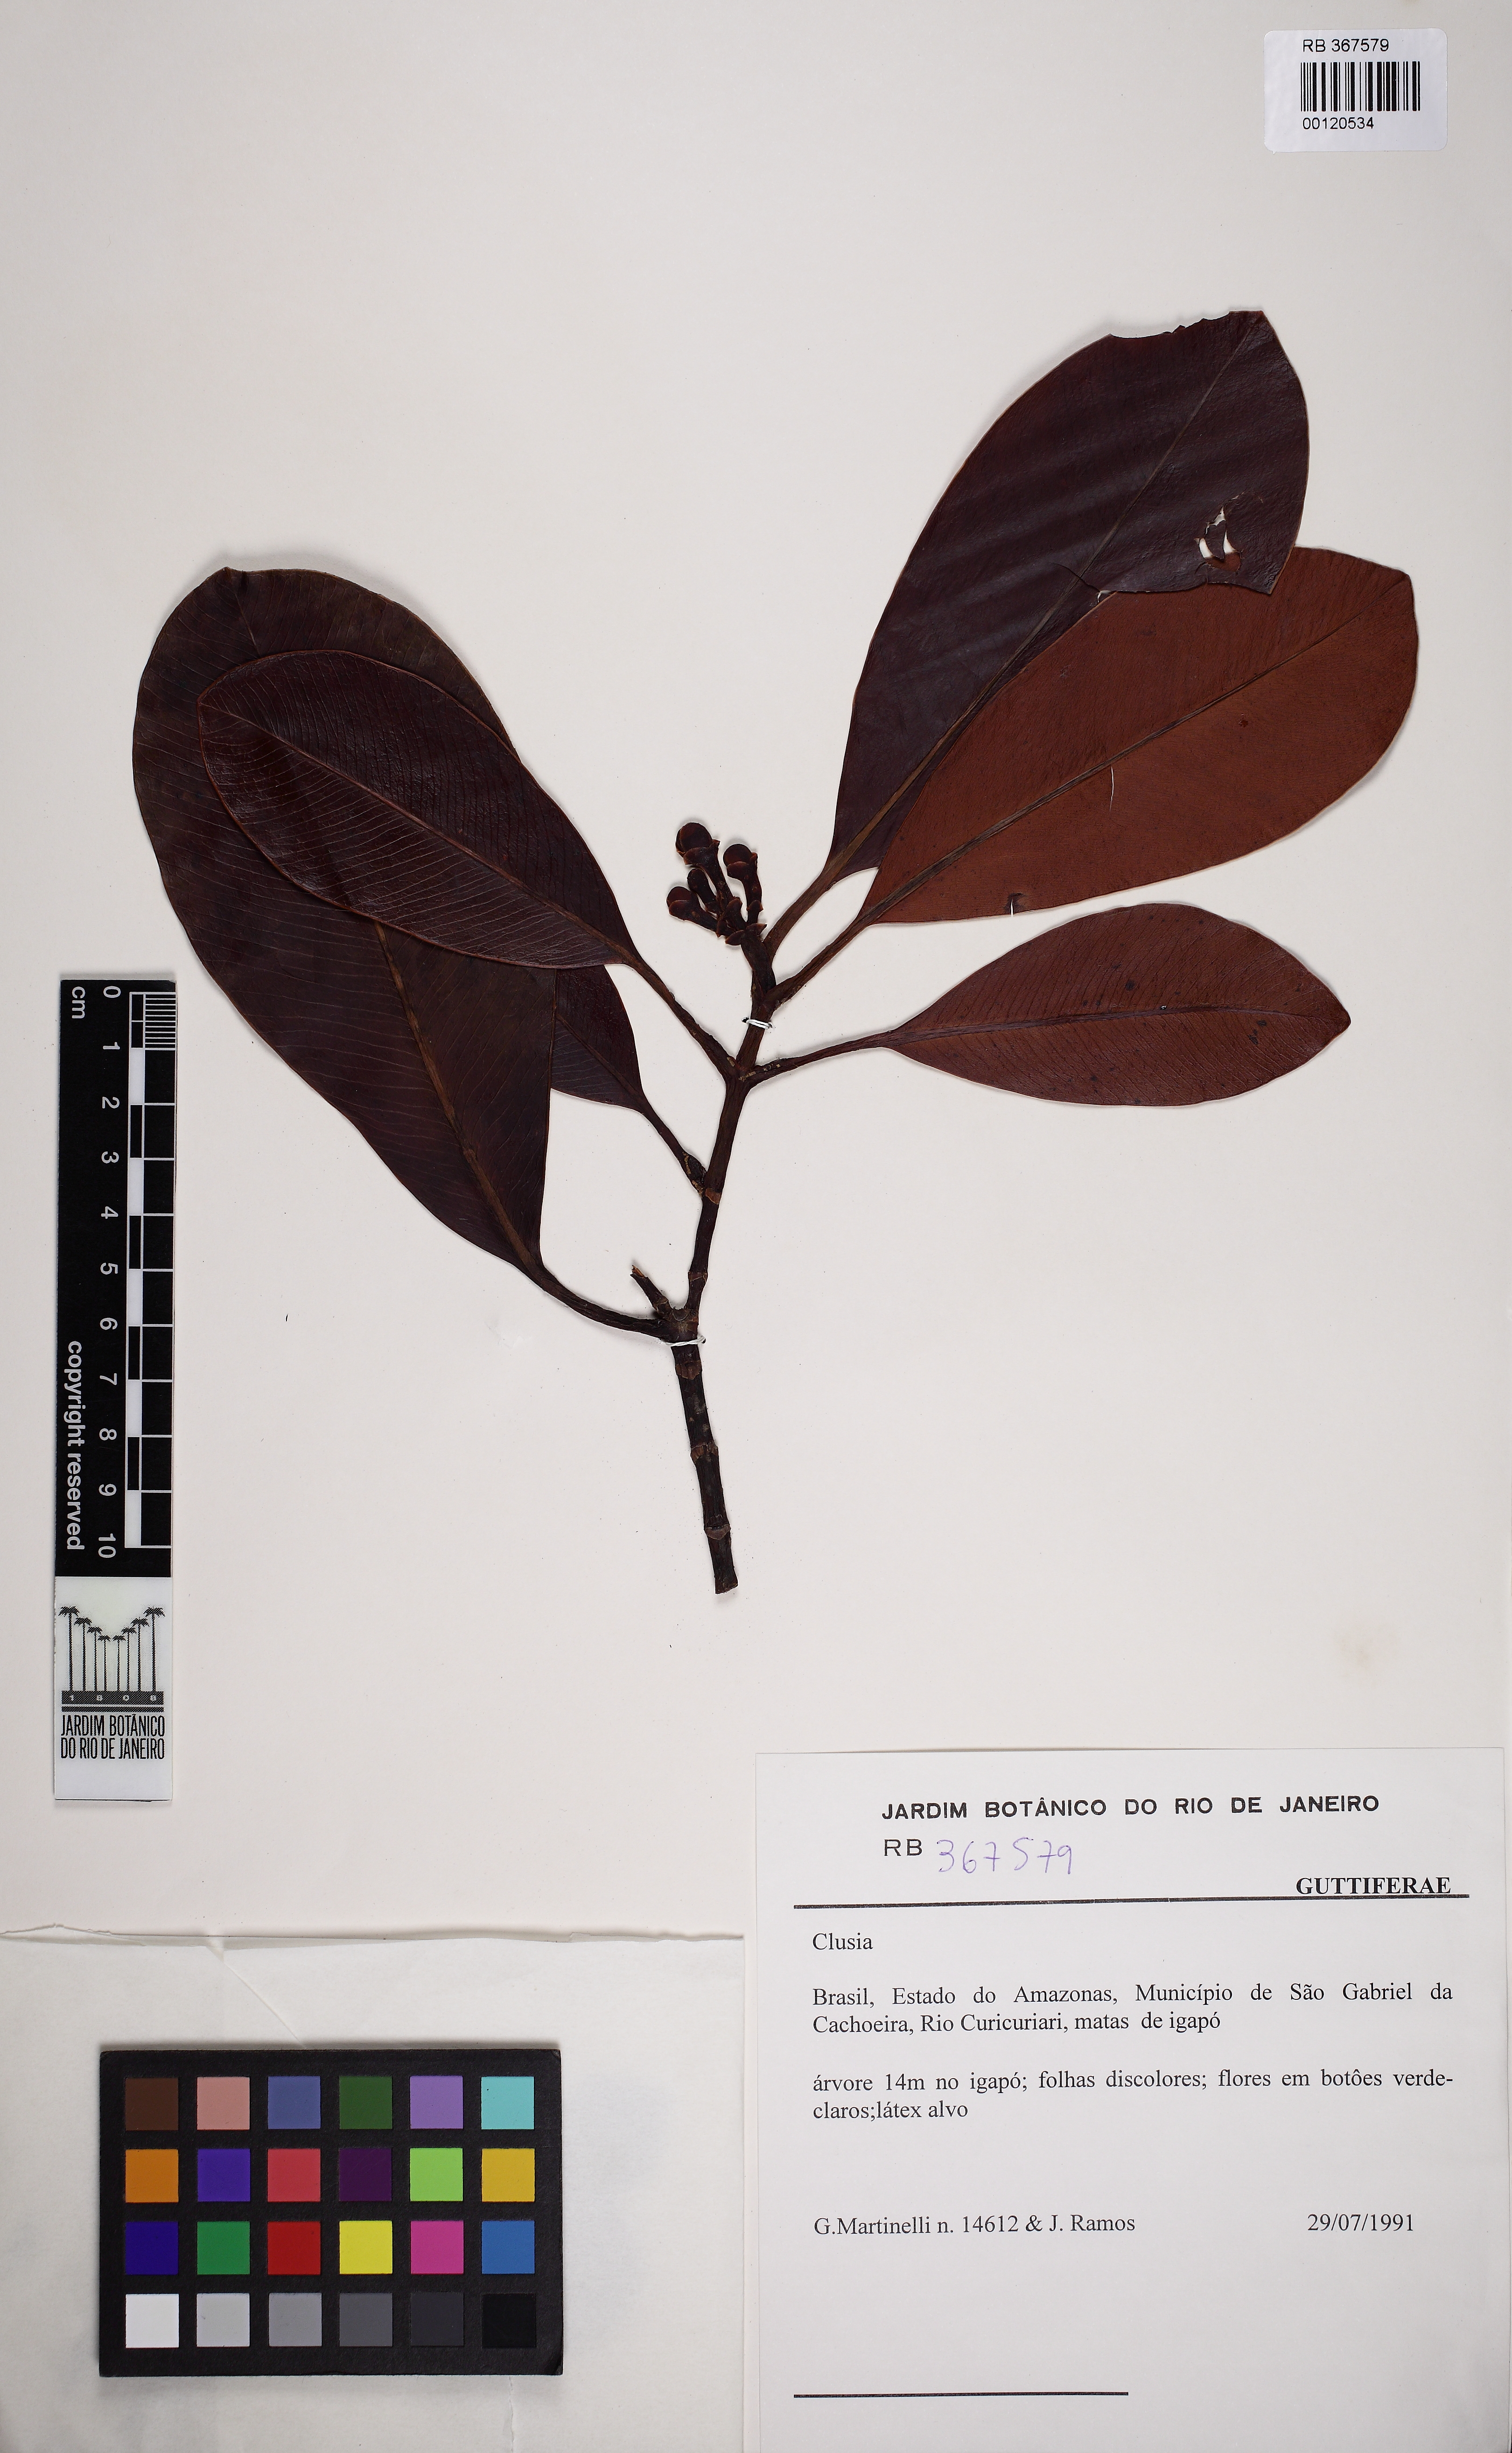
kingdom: Plantae
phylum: Tracheophyta
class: Magnoliopsida
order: Malpighiales
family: Clusiaceae
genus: Clusia
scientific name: Clusia
